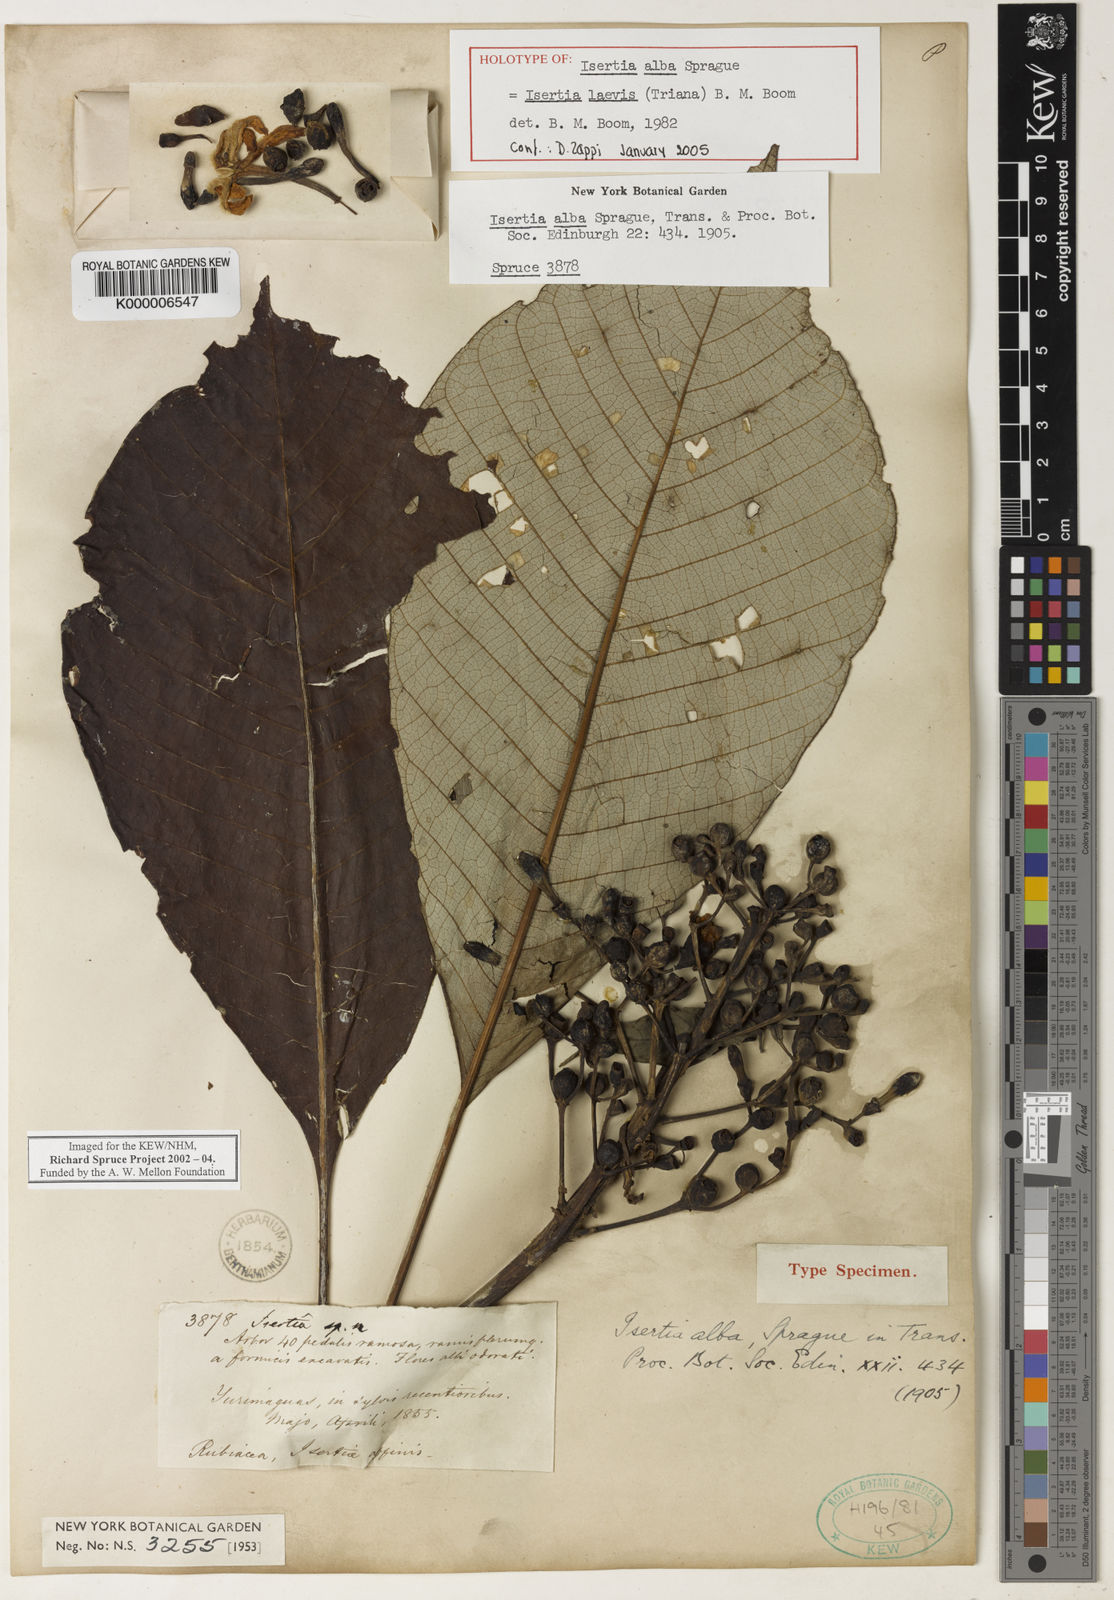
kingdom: Plantae
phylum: Tracheophyta
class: Magnoliopsida
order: Gentianales
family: Rubiaceae
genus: Isertia
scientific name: Isertia laevis
